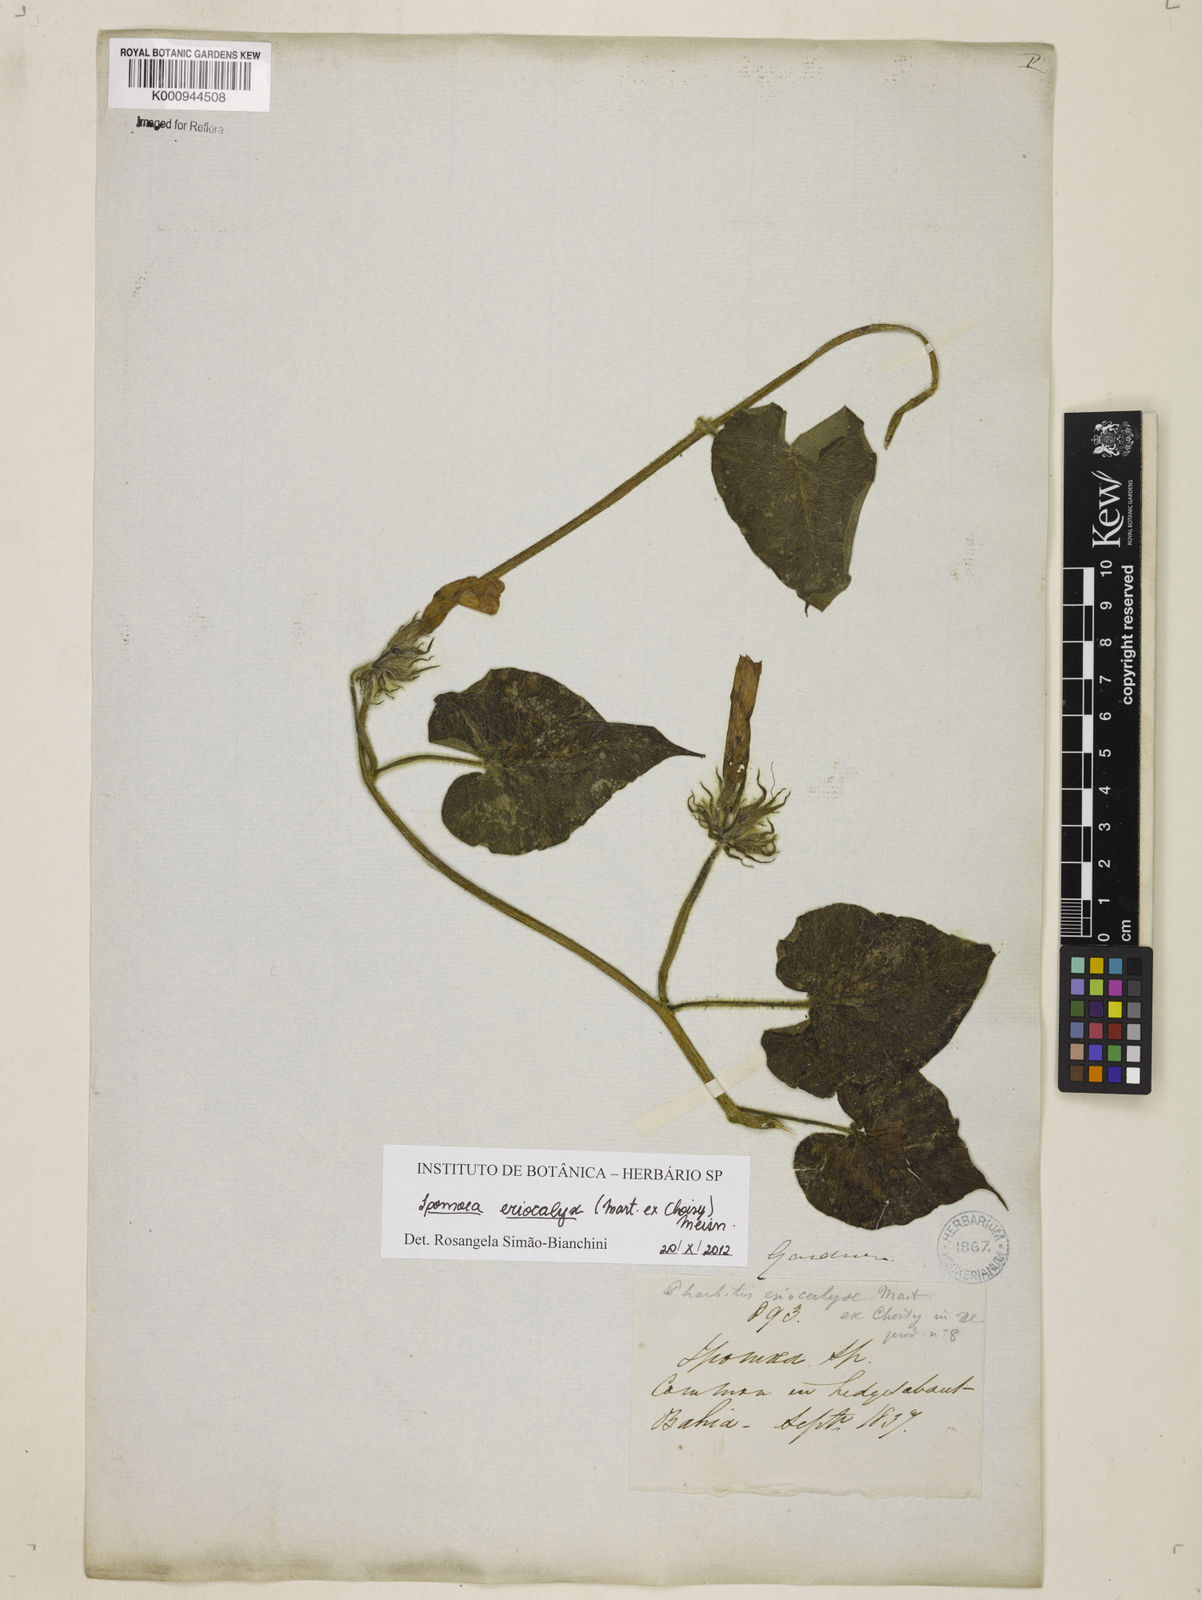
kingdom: Plantae
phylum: Tracheophyta
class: Magnoliopsida
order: Solanales
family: Convolvulaceae
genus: Ipomoea
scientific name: Ipomoea eriocalyx
